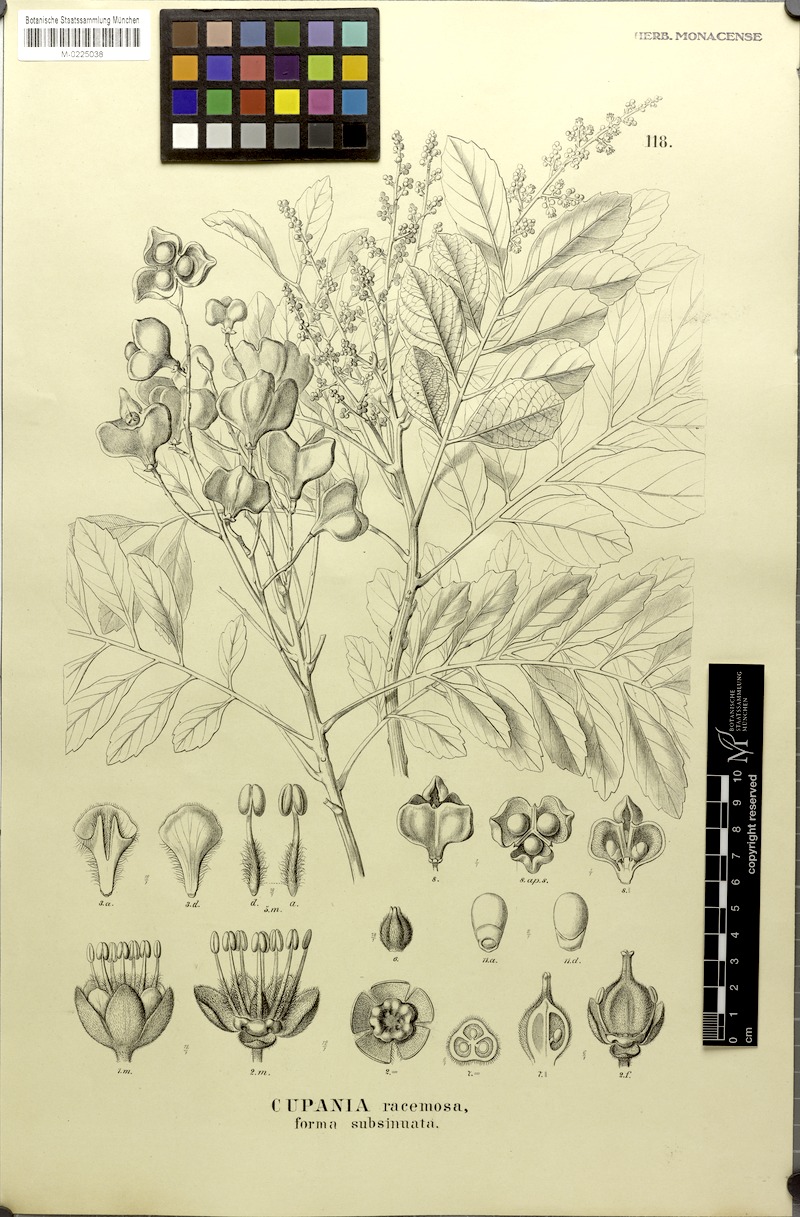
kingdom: Plantae
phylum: Tracheophyta
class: Magnoliopsida
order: Sapindales
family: Sapindaceae
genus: Cupania
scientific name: Cupania racemosa
